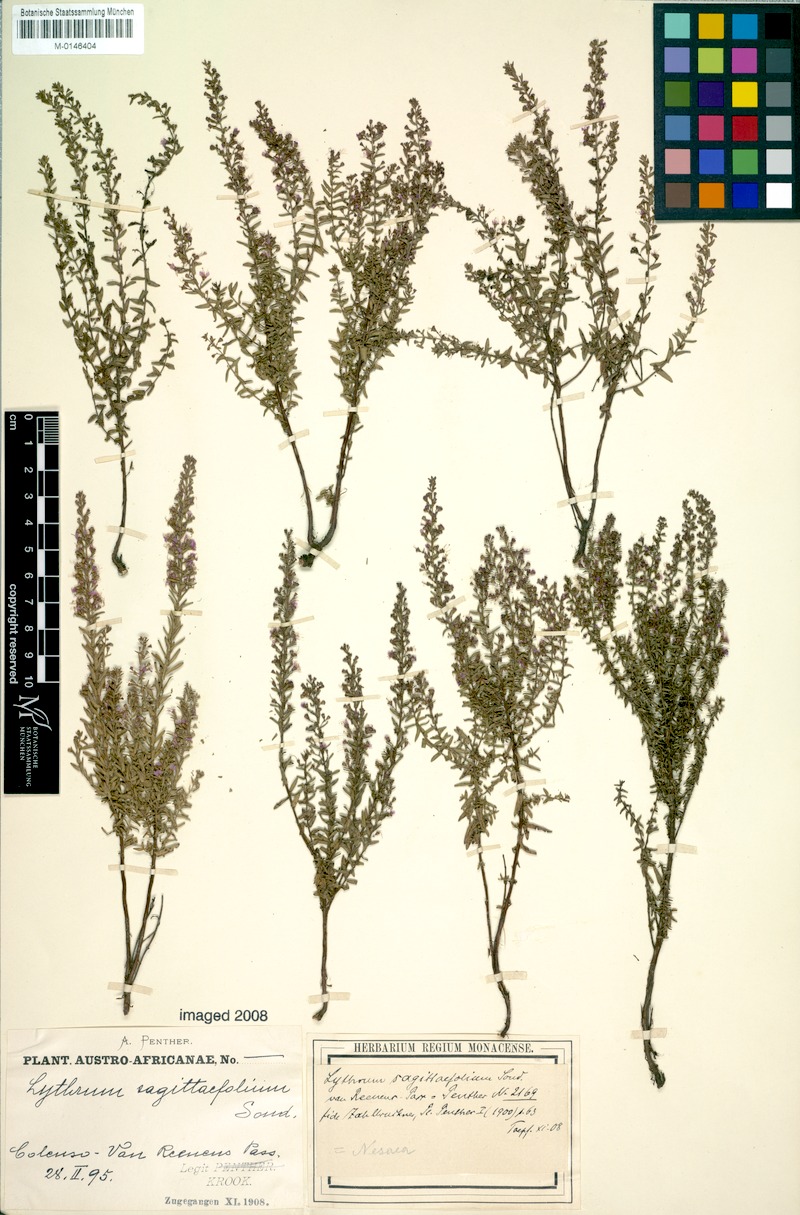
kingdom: Plantae
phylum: Tracheophyta
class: Magnoliopsida
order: Myrtales
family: Lythraceae
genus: Ammannia
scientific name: Ammannia sagittifolia
